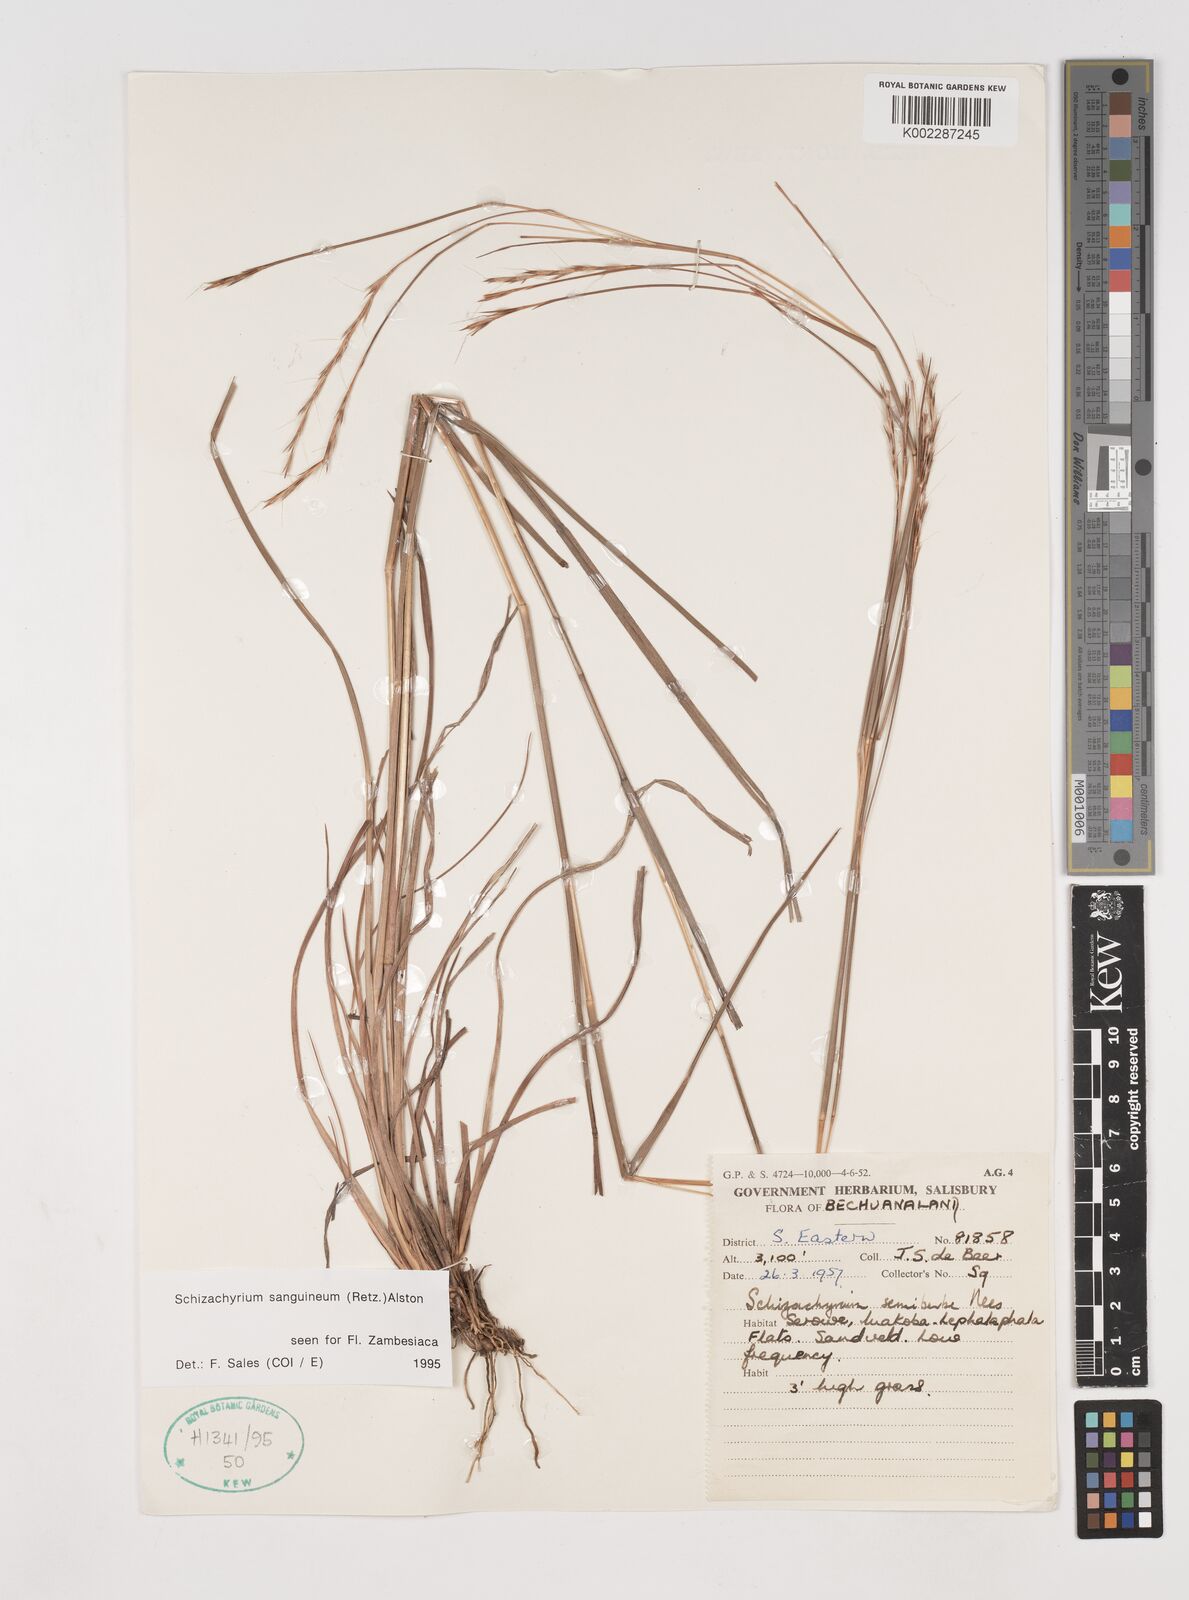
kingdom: Plantae
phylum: Tracheophyta
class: Liliopsida
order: Poales
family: Poaceae
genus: Schizachyrium
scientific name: Schizachyrium sanguineum
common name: Crimson bluestem
